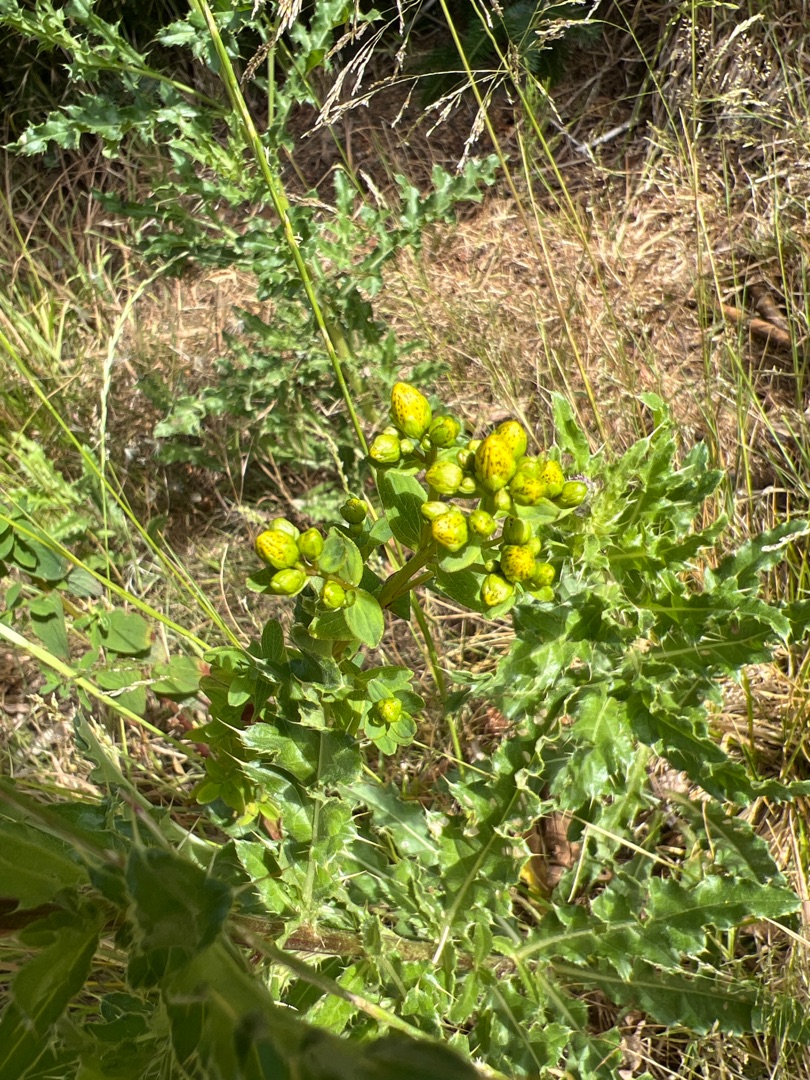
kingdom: Plantae
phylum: Tracheophyta
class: Magnoliopsida
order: Malpighiales
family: Hypericaceae
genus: Hypericum
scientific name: Hypericum maculatum
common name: Kantet perikon
